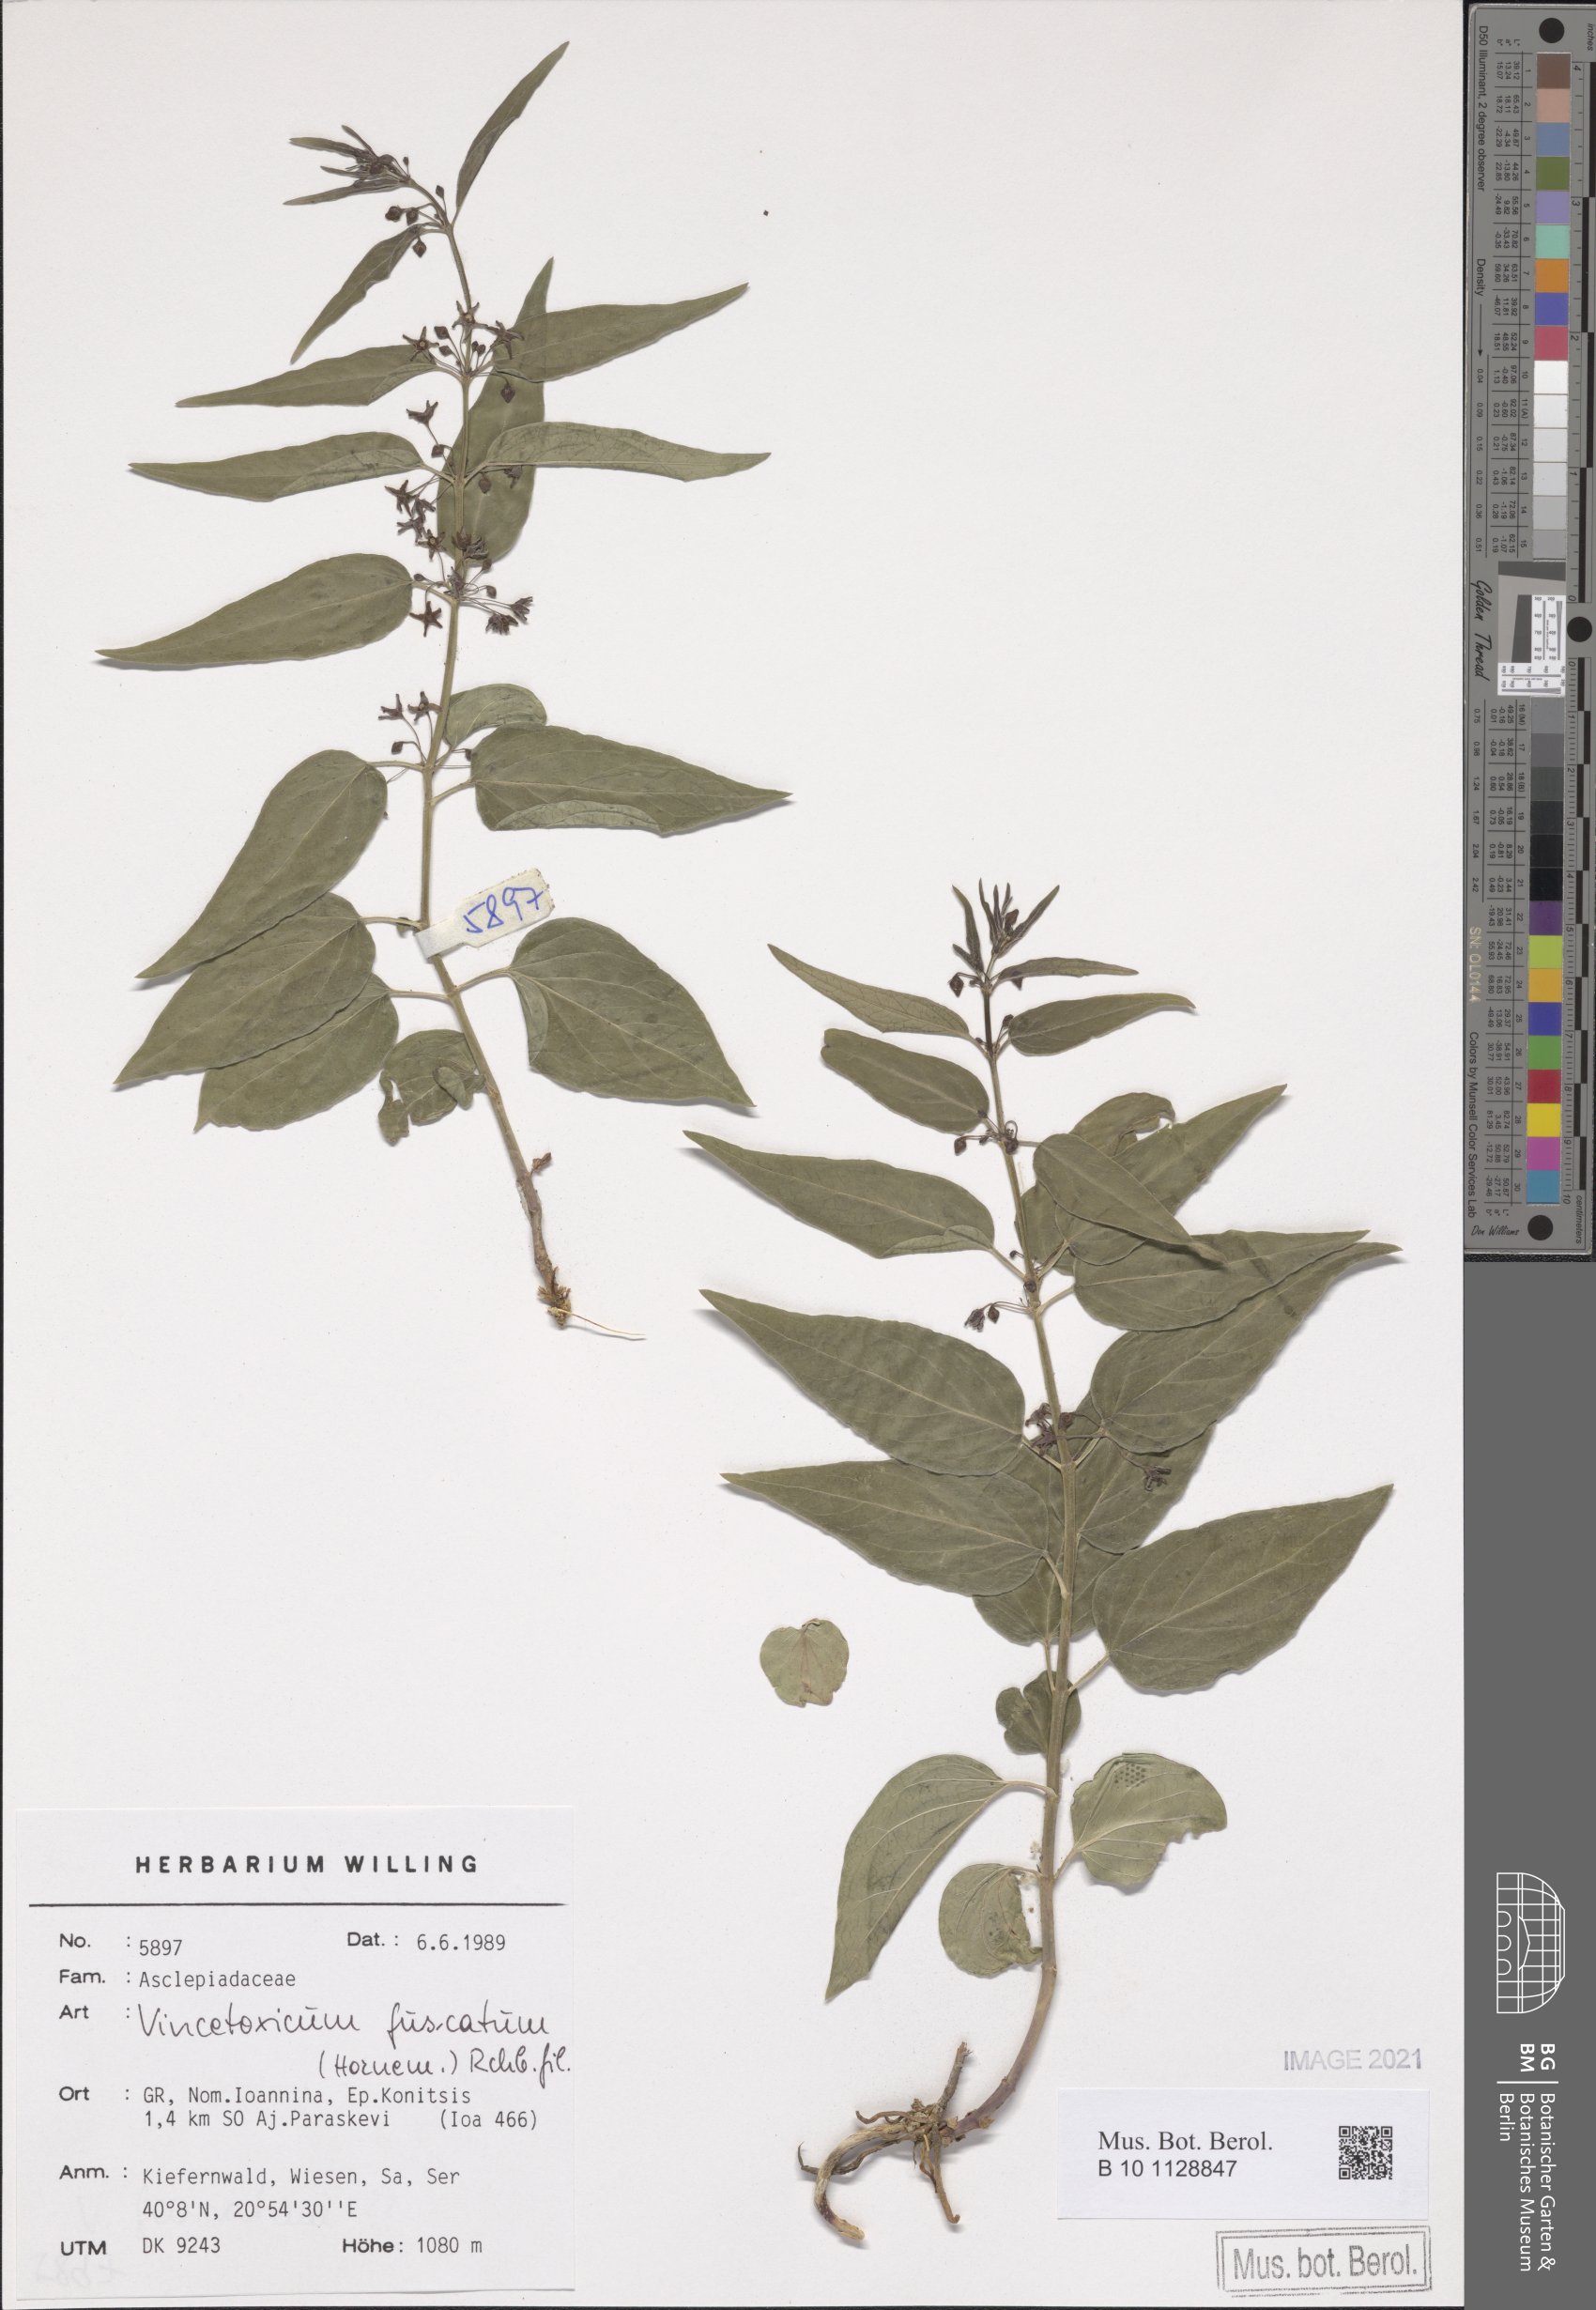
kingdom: Plantae
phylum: Tracheophyta
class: Magnoliopsida
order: Gentianales
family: Apocynaceae
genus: Vincetoxicum
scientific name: Vincetoxicum fuscatum
